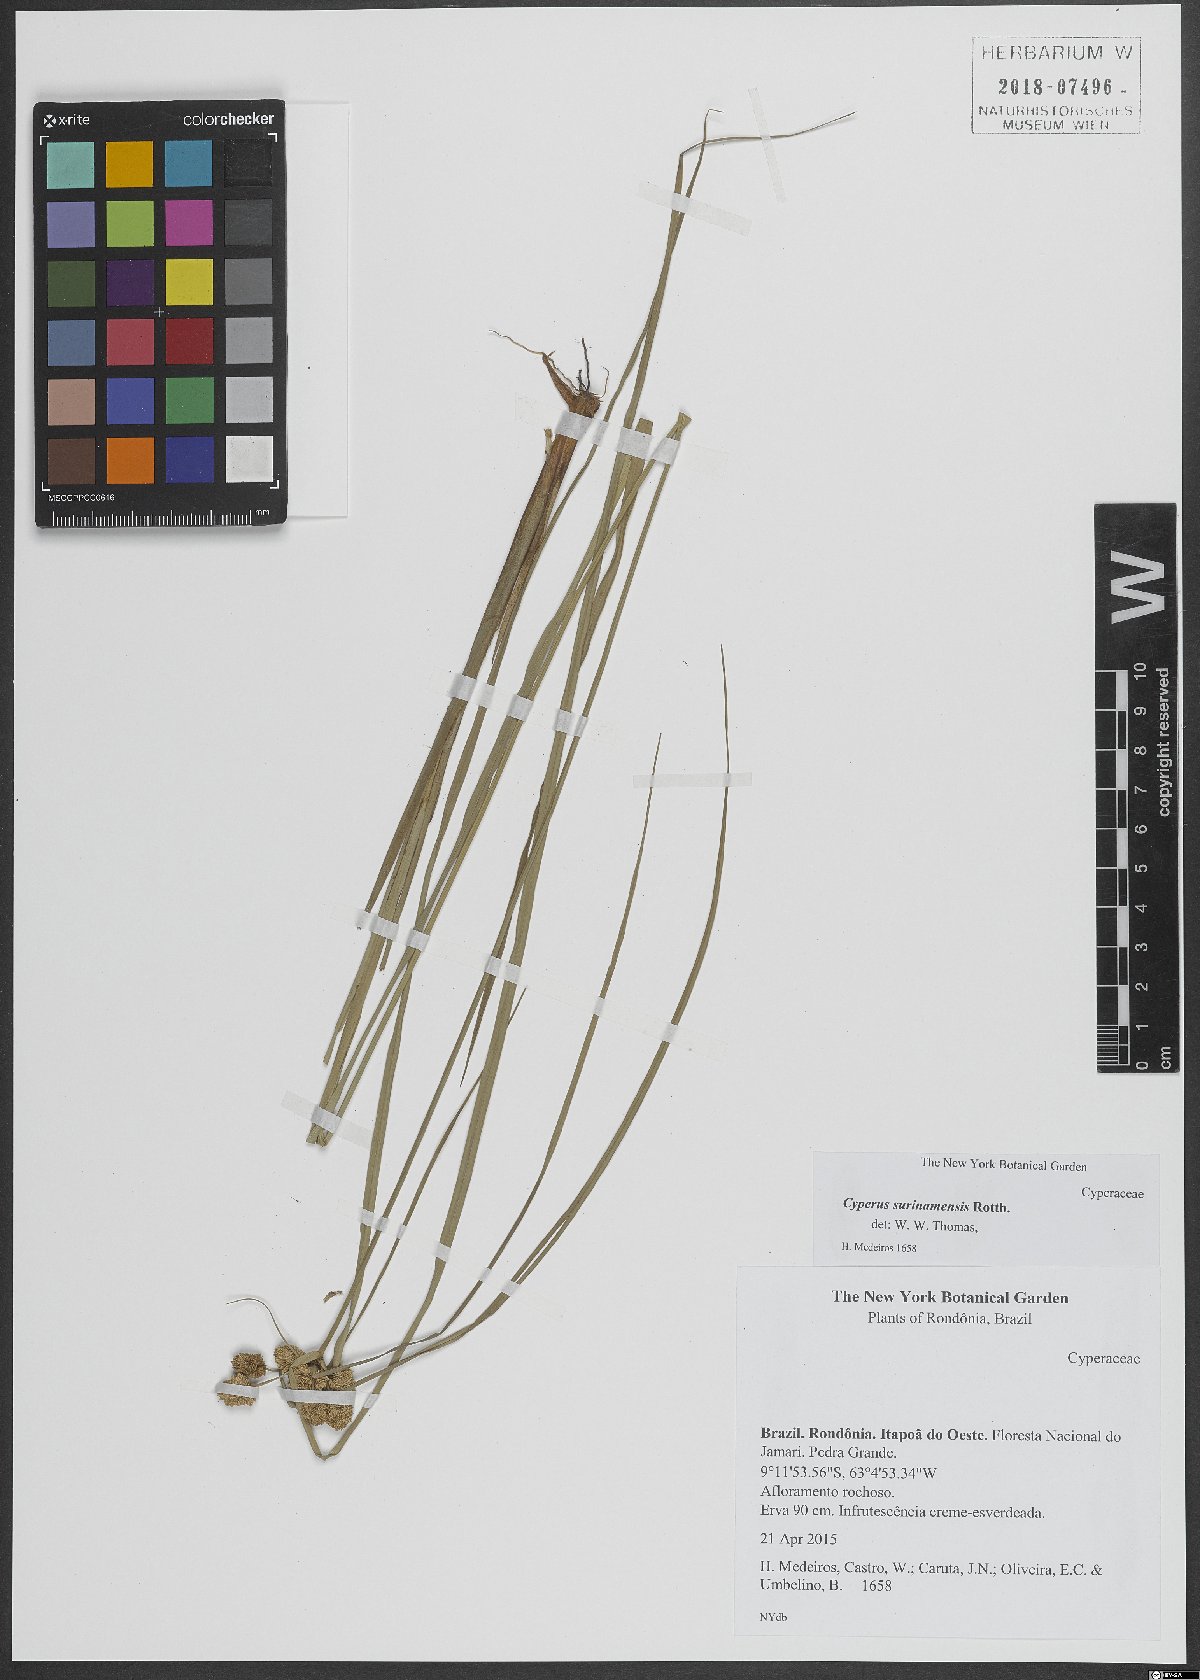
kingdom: Plantae
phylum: Tracheophyta
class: Liliopsida
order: Poales
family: Cyperaceae
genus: Cyperus
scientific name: Cyperus surinamensis
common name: Tropical flat sedge
